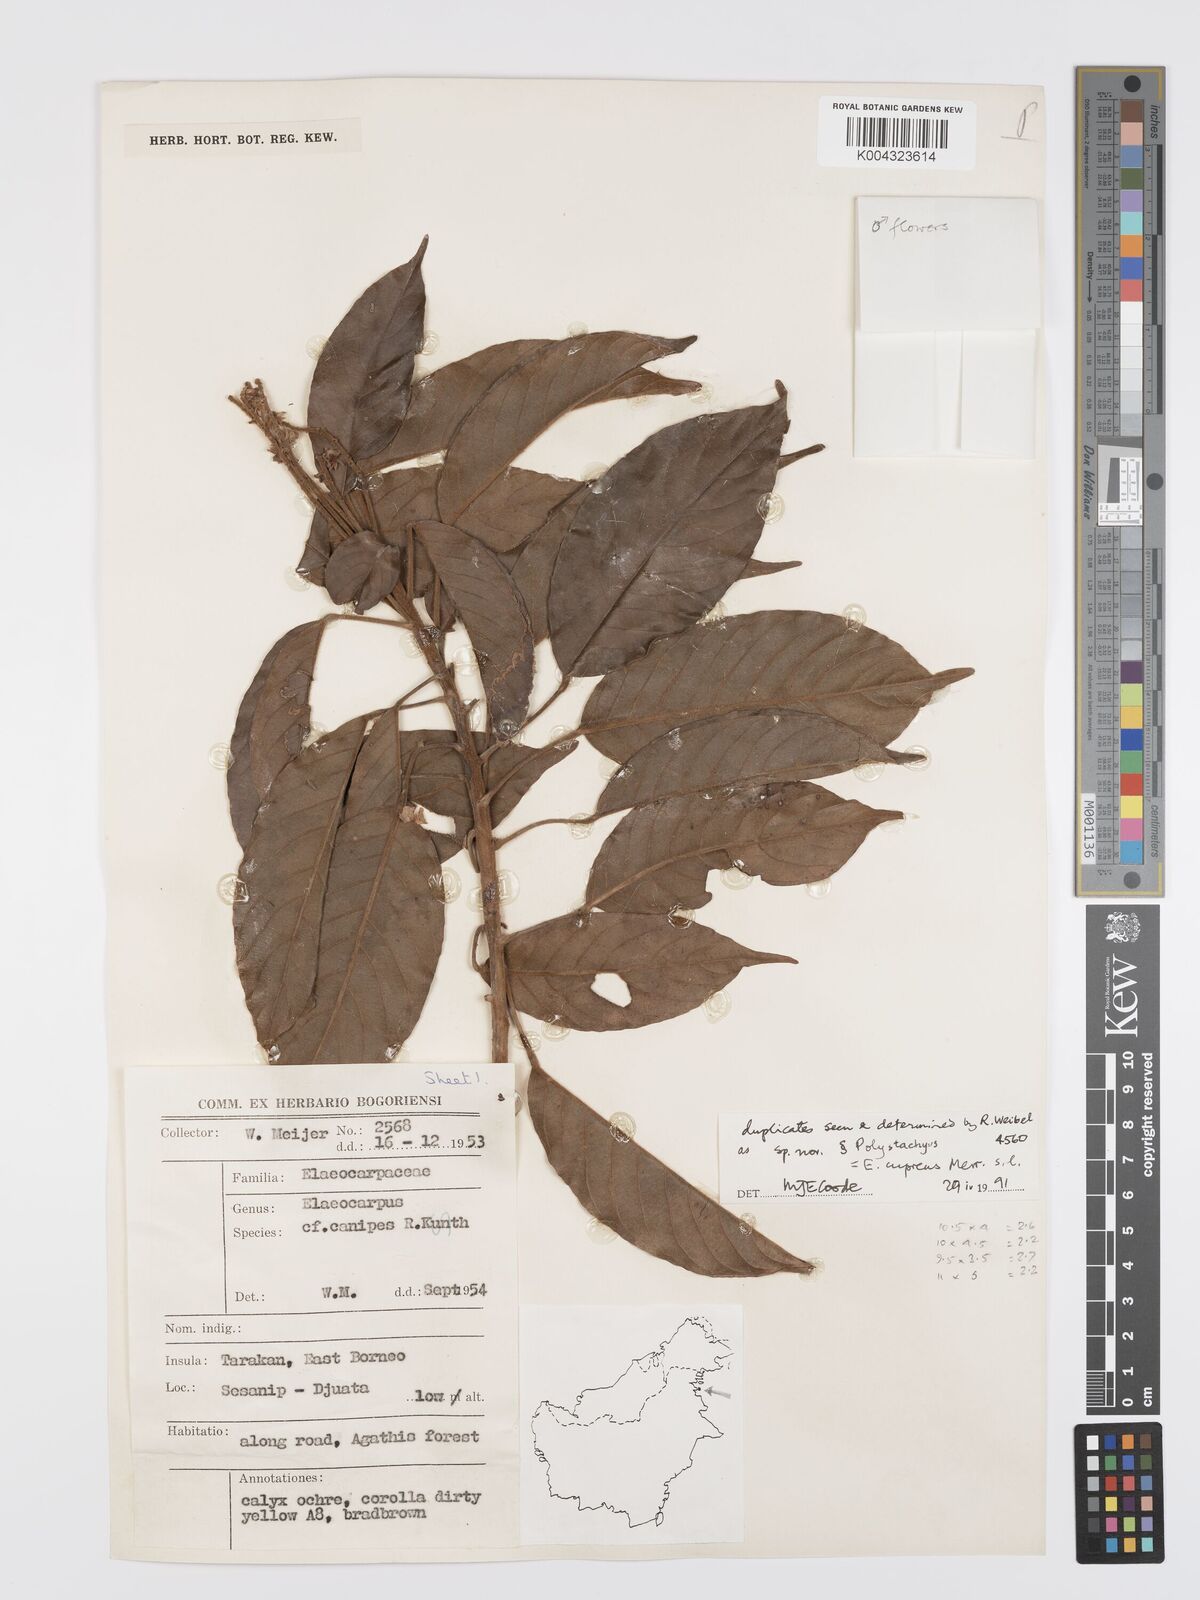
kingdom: Plantae
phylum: Tracheophyta
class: Magnoliopsida
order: Oxalidales
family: Elaeocarpaceae
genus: Elaeocarpus
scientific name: Elaeocarpus cupreus
